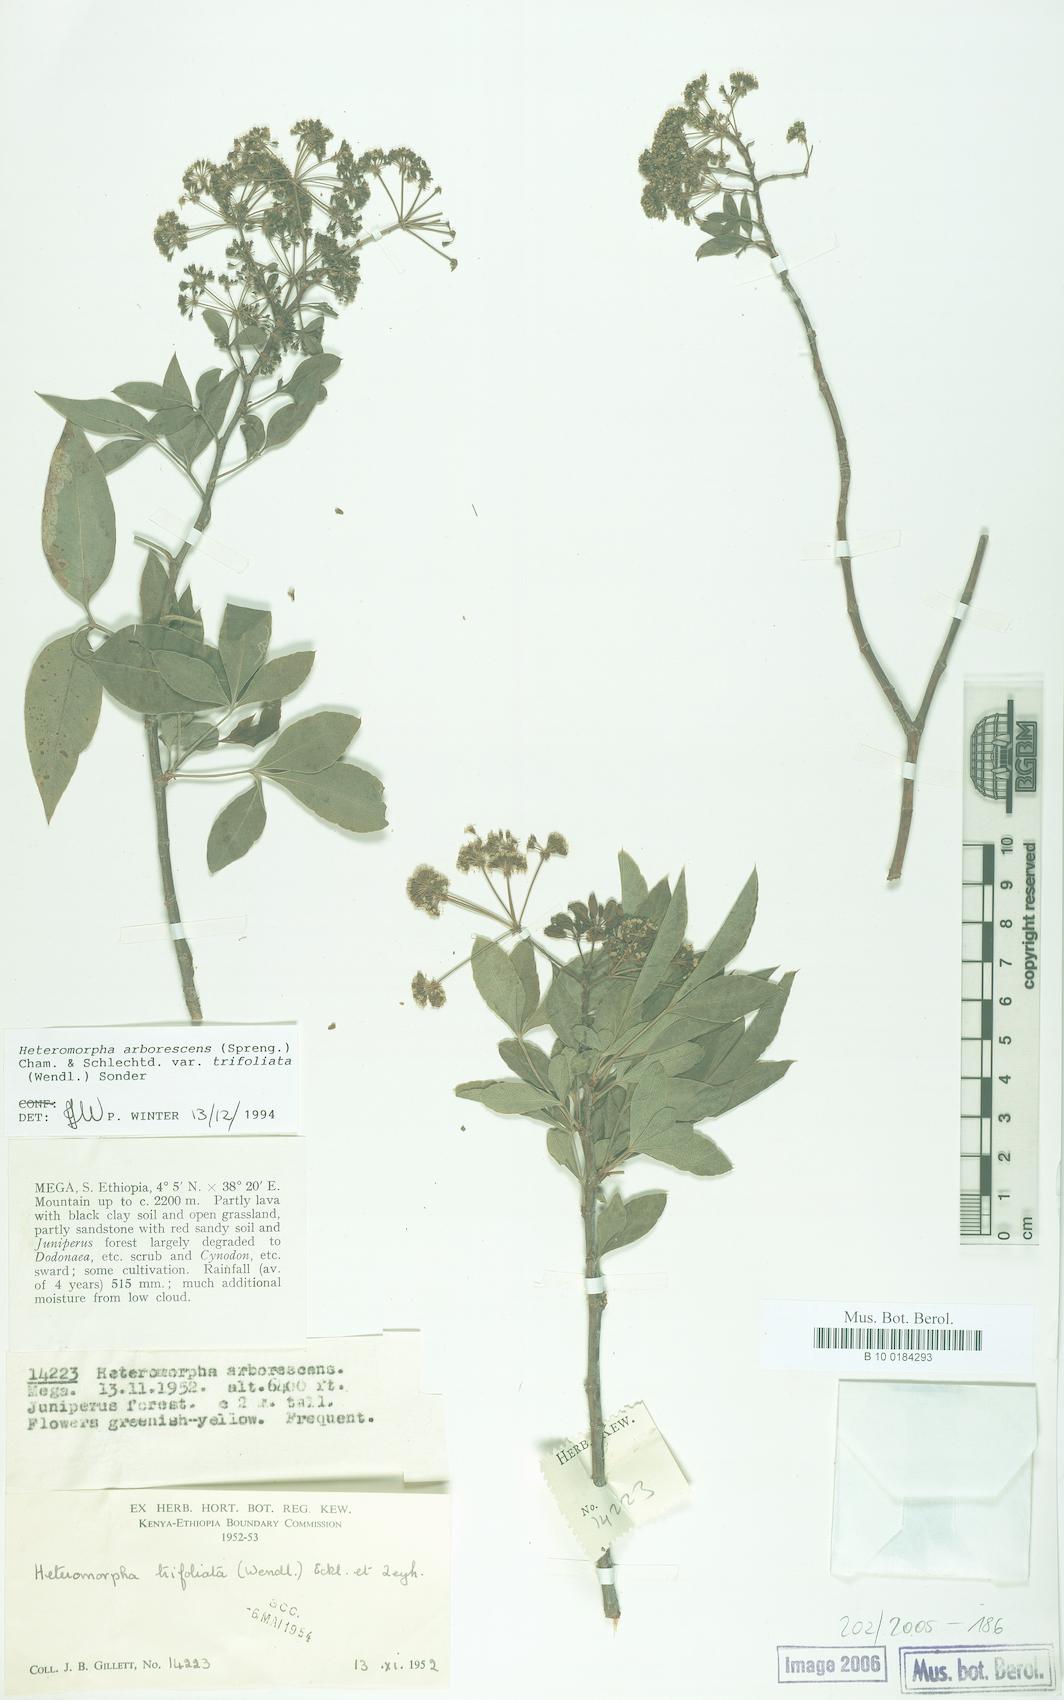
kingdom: Plantae
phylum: Tracheophyta
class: Magnoliopsida
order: Apiales
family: Apiaceae
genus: Heteromorpha
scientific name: Heteromorpha arborescens
